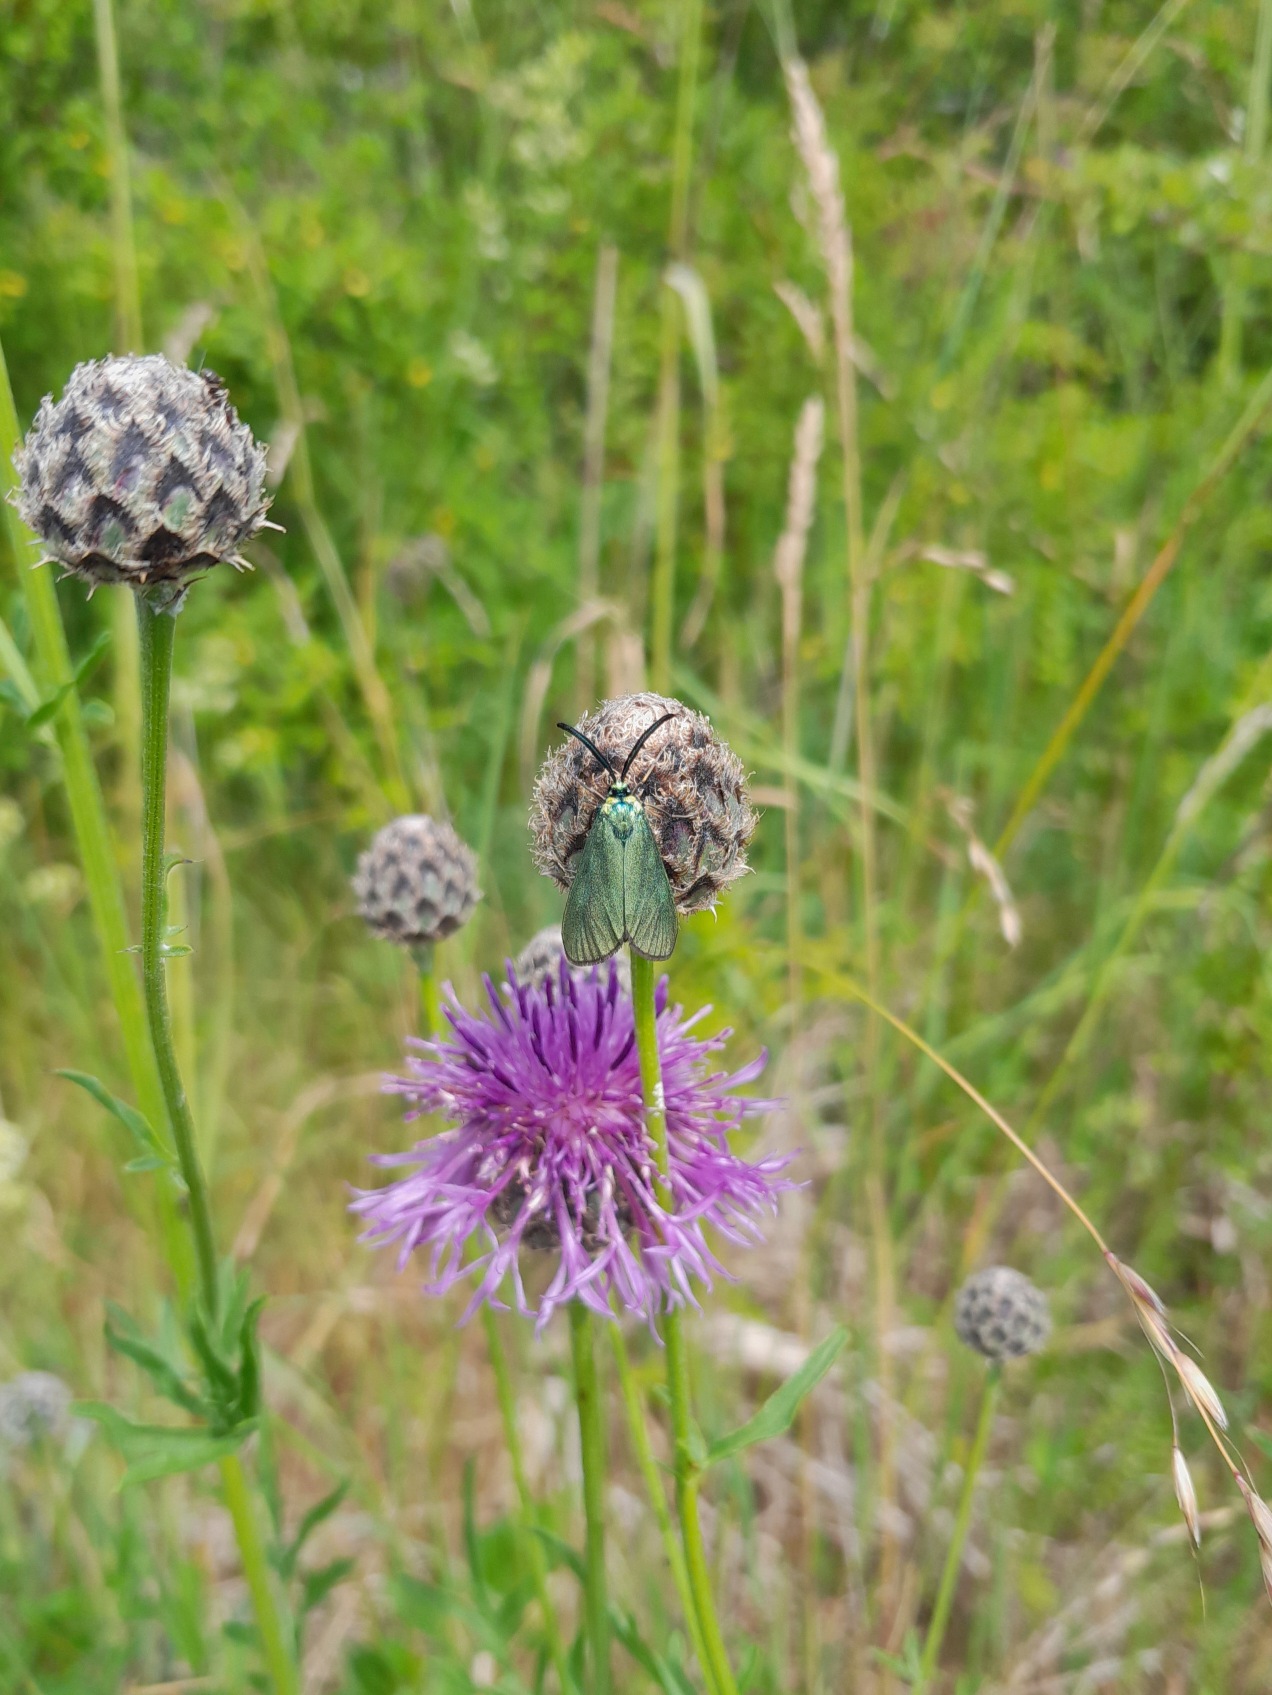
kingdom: Animalia
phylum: Arthropoda
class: Insecta
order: Lepidoptera
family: Zygaenidae
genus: Adscita
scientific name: Adscita statices
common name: Metalvinge
